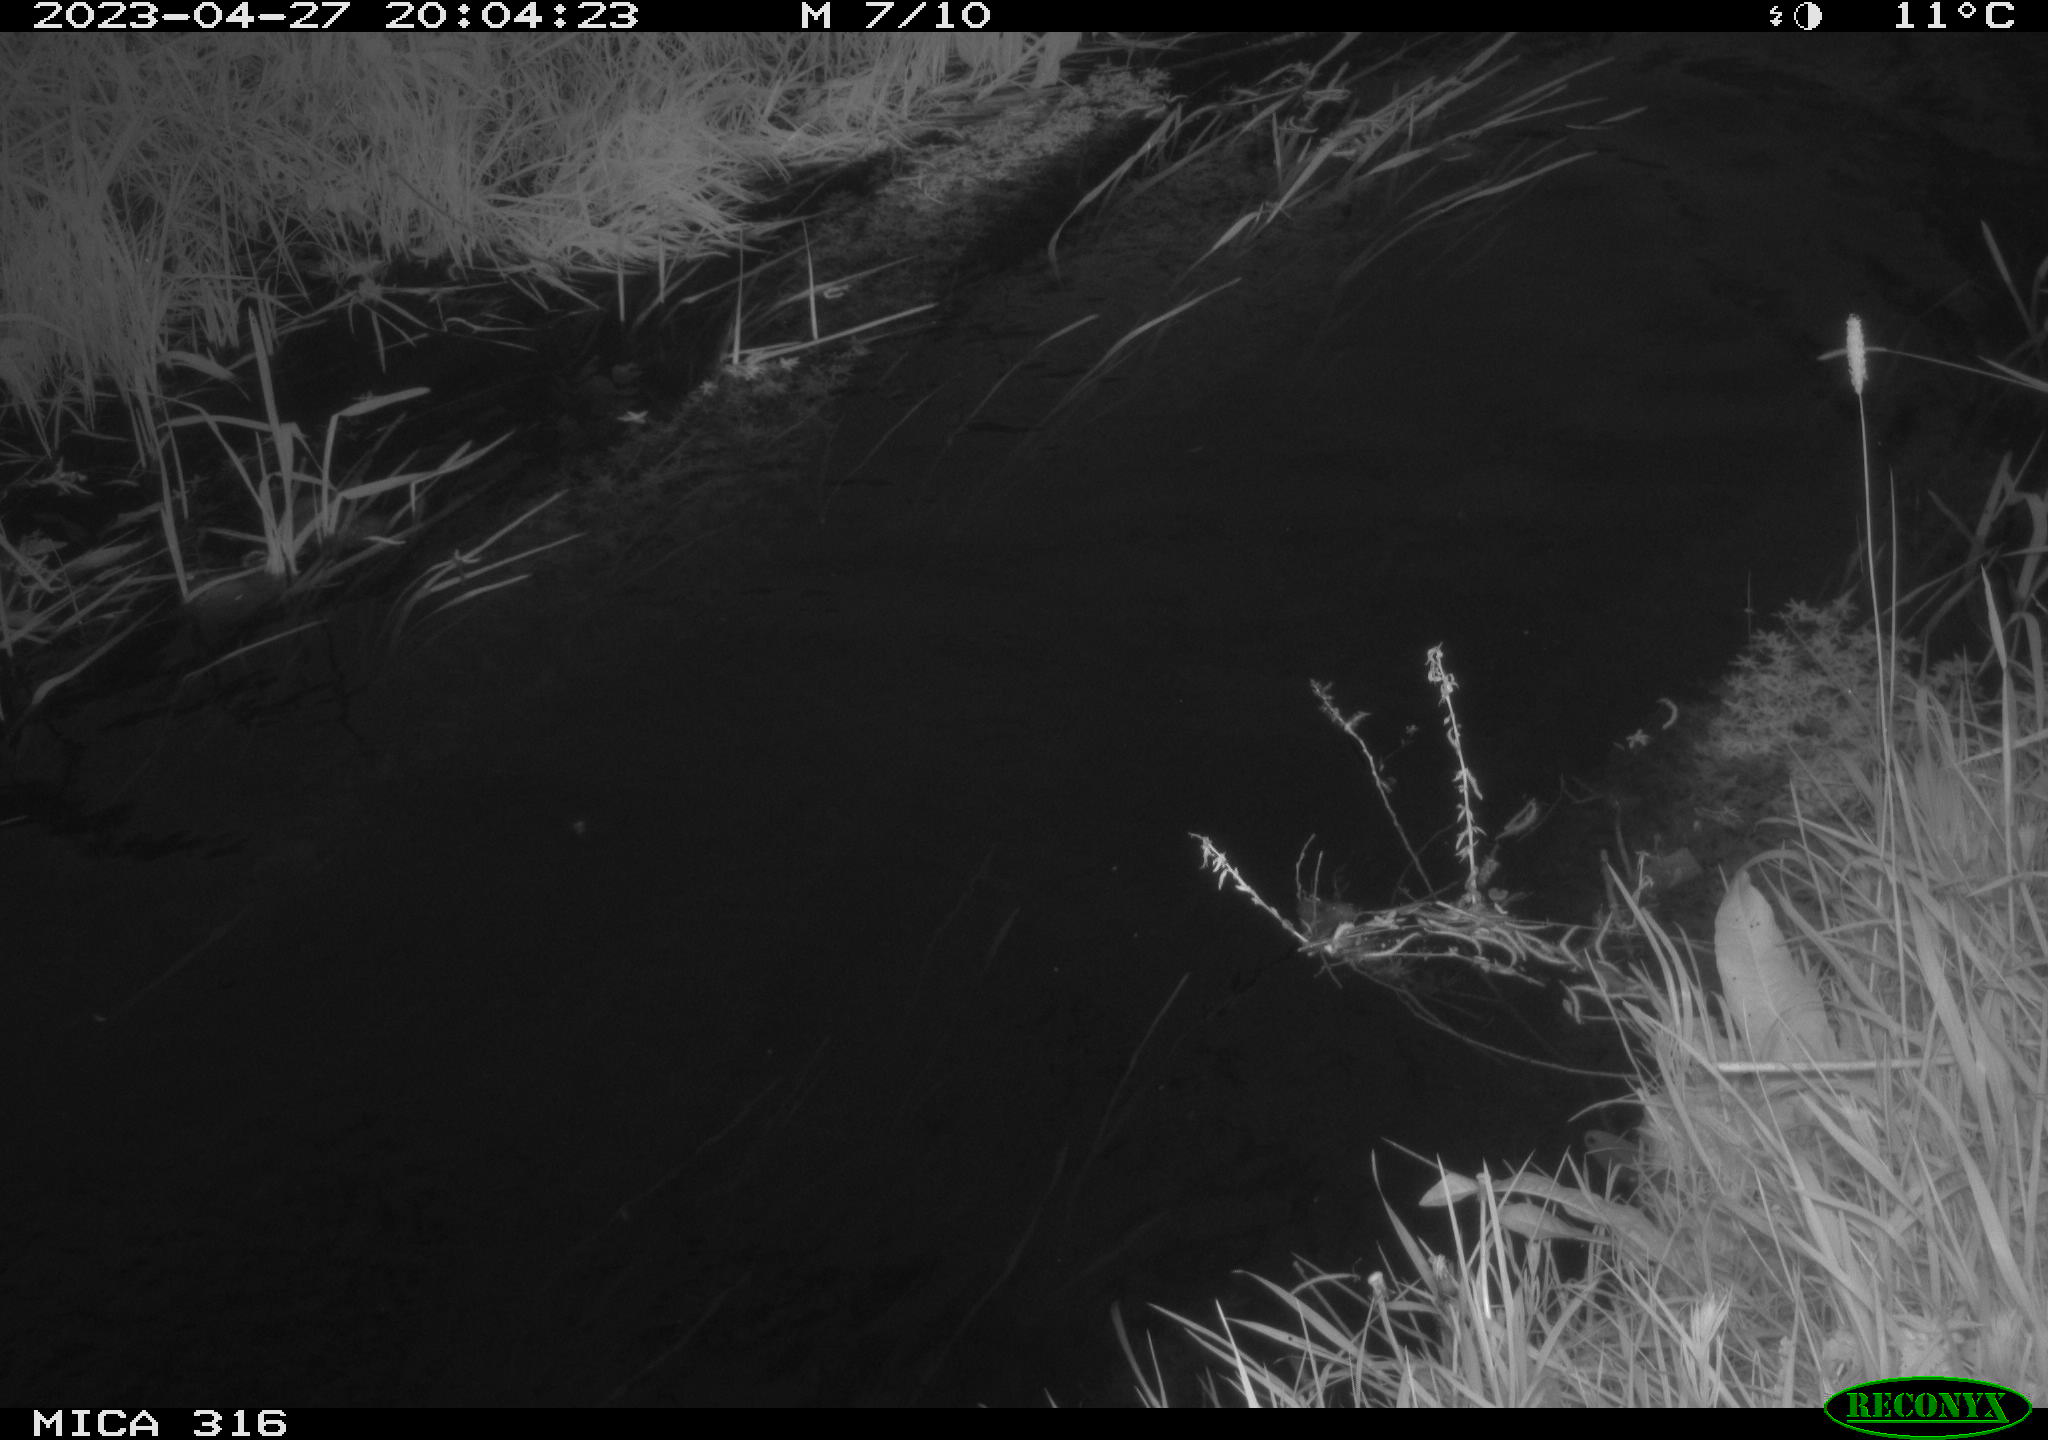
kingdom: Animalia
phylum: Chordata
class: Aves
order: Anseriformes
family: Anatidae
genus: Anas
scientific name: Anas
